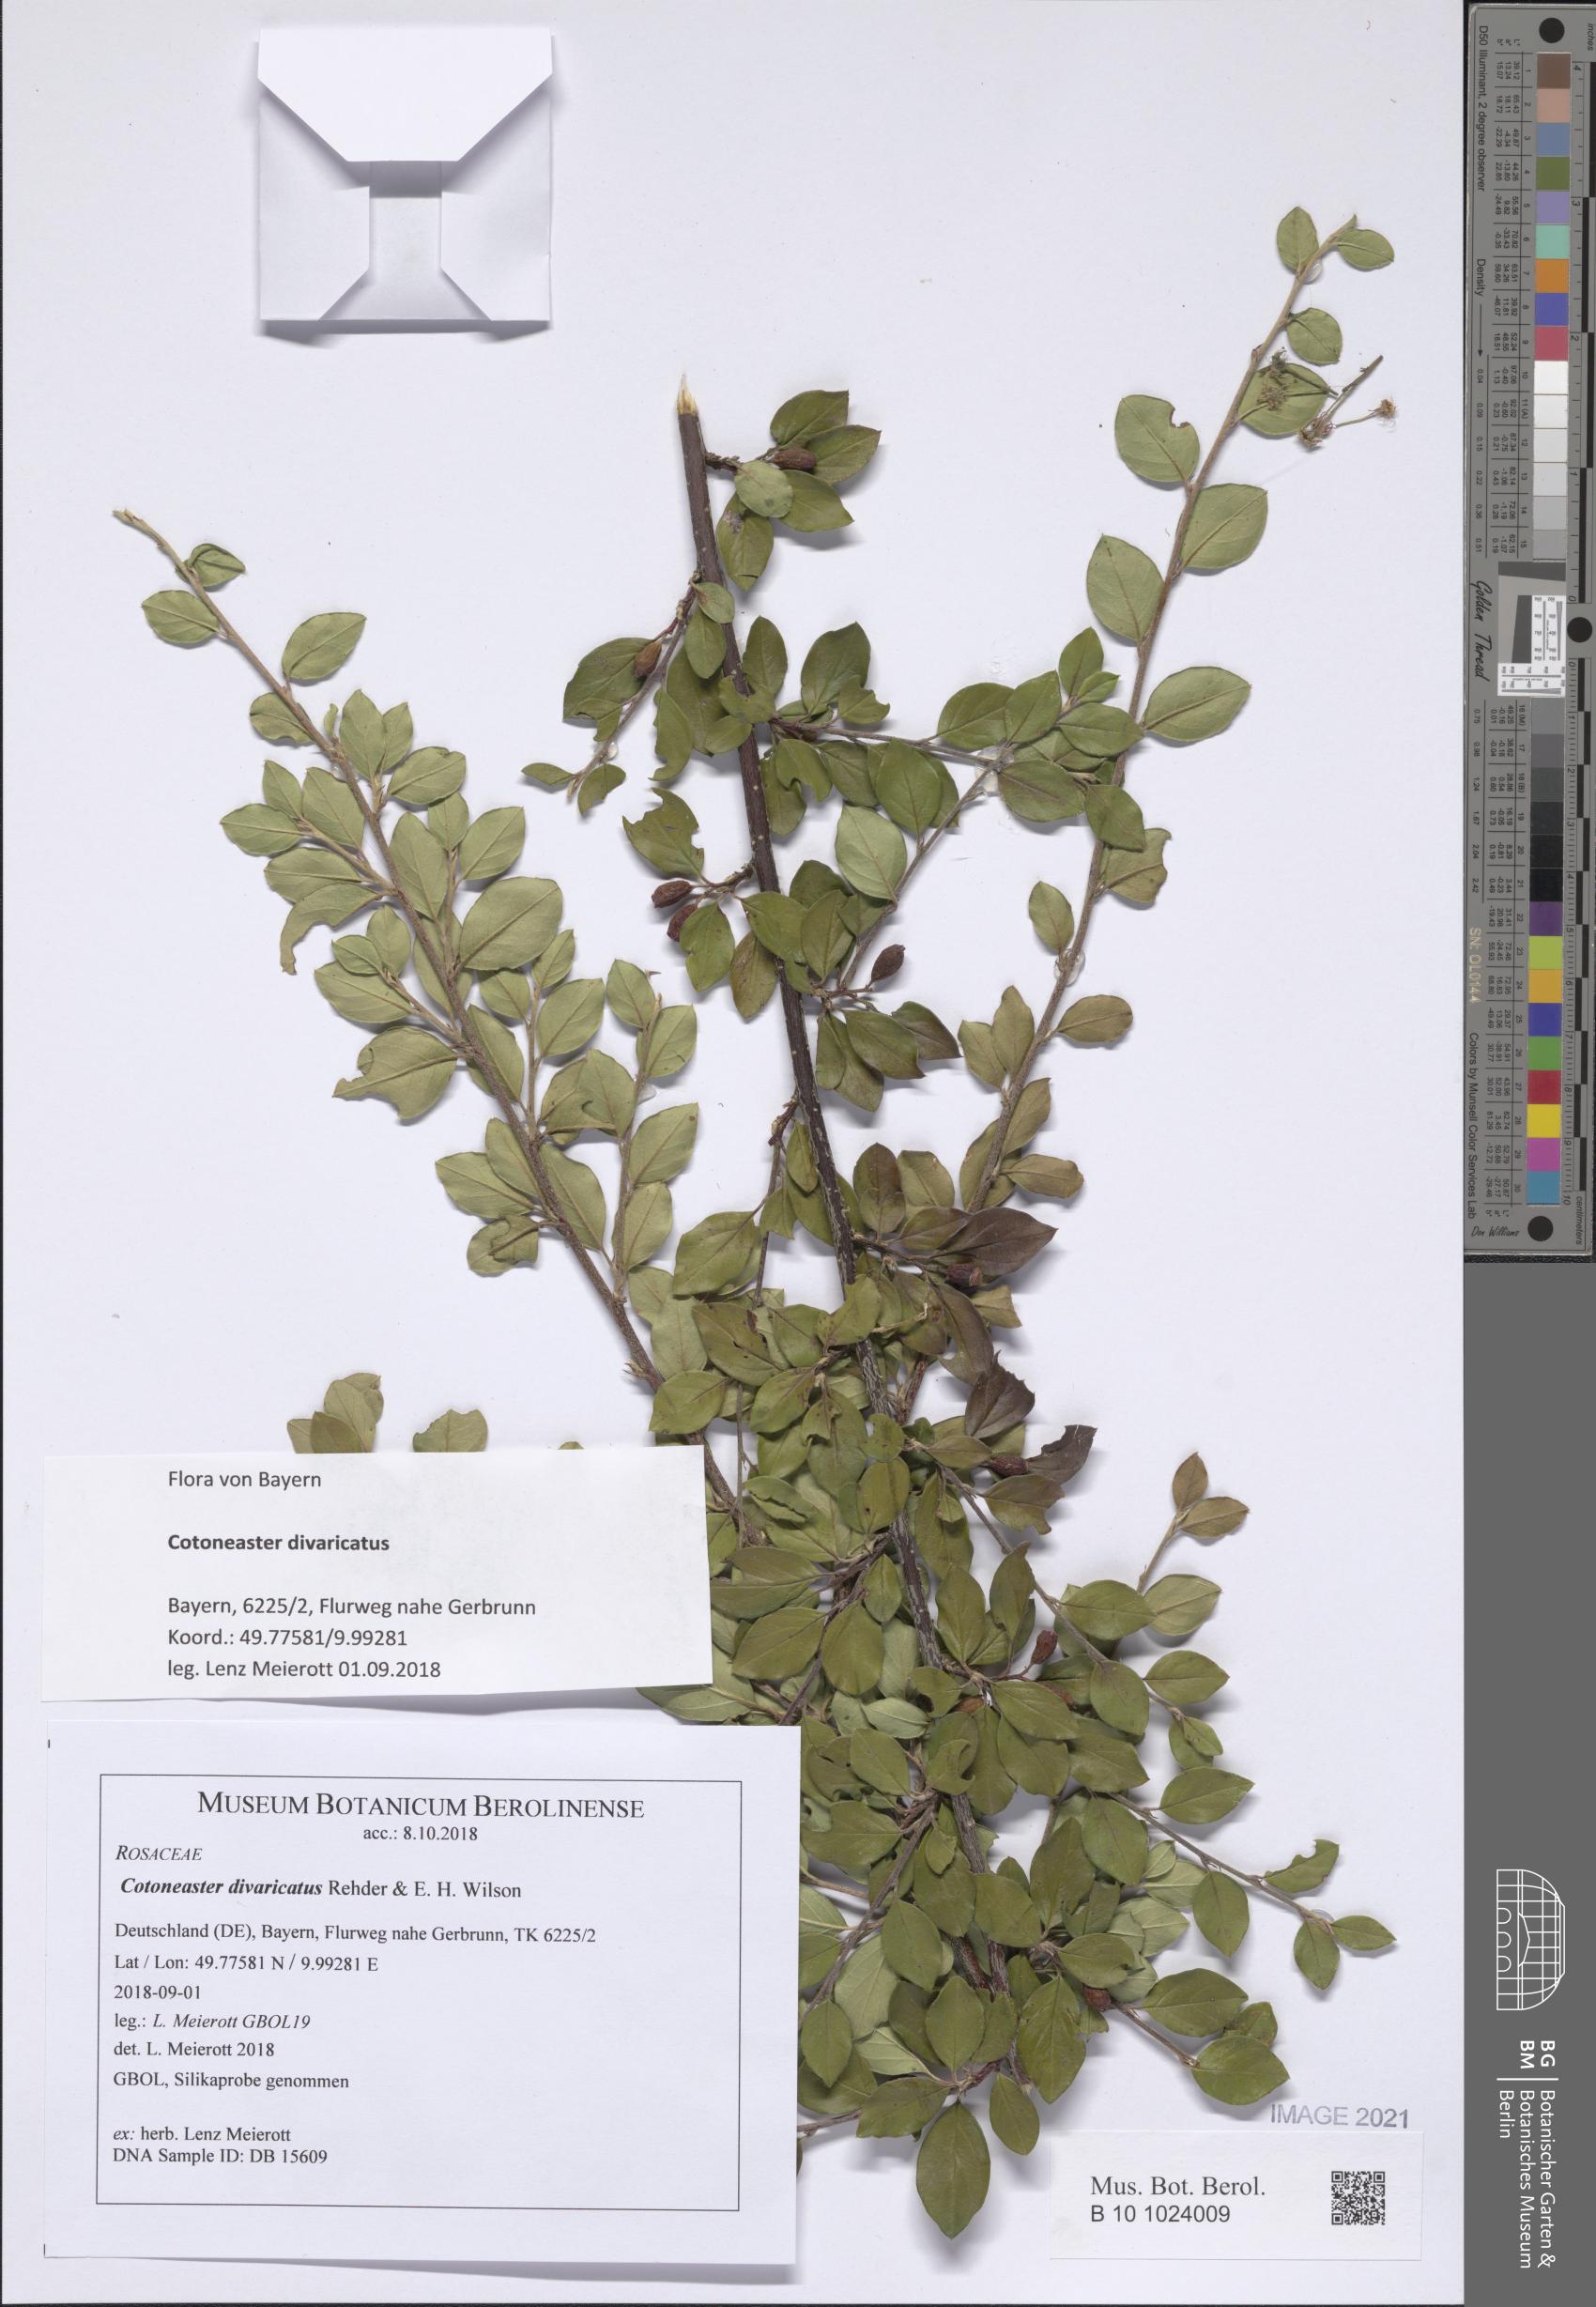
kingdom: Plantae
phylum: Tracheophyta
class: Magnoliopsida
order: Rosales
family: Rosaceae
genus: Cotoneaster
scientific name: Cotoneaster divaricatus
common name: Spreading cotoneaster
